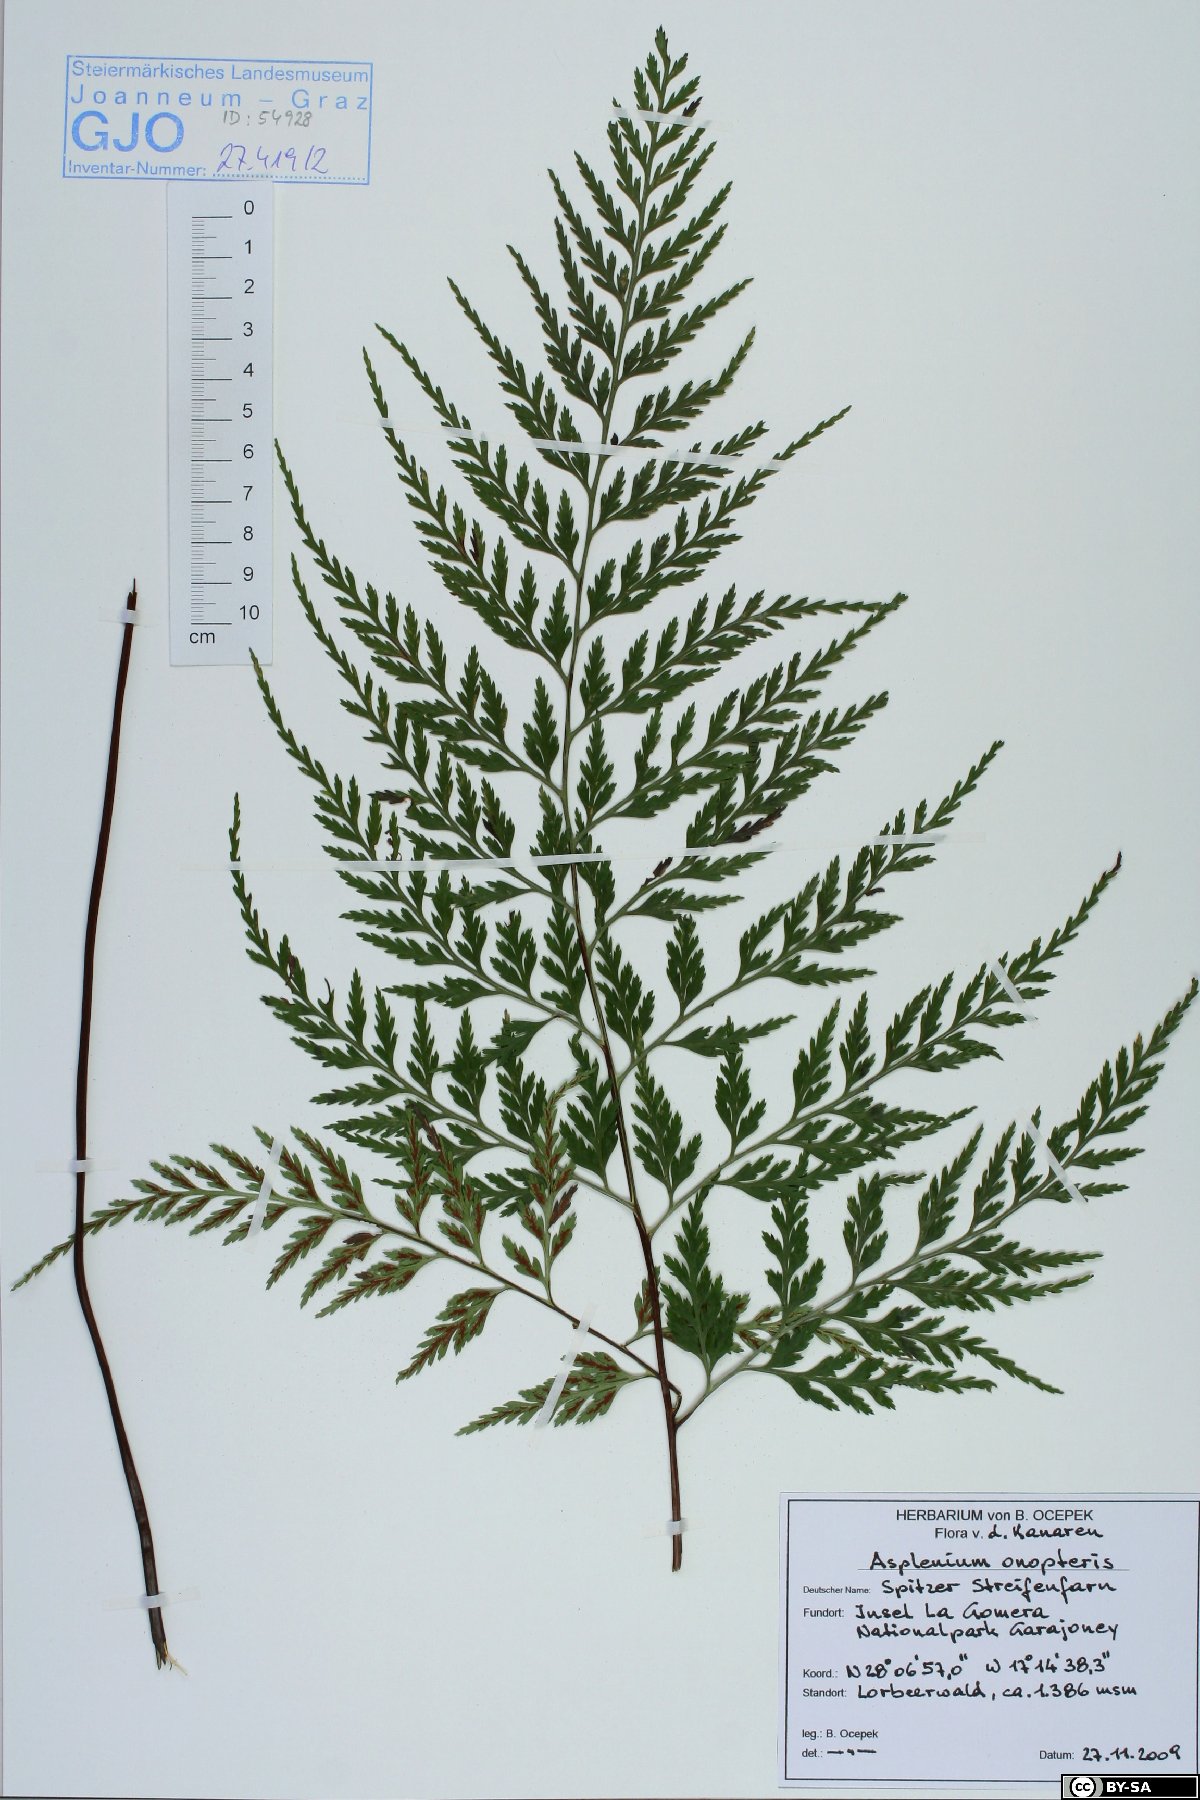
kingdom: Plantae
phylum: Tracheophyta
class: Polypodiopsida
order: Polypodiales
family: Aspleniaceae
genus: Asplenium
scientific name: Asplenium onopteris
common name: Irish spleenwort
